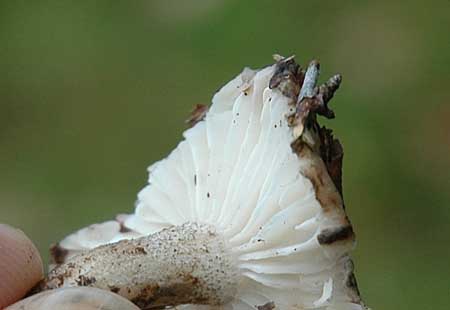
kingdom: Fungi
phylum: Basidiomycota
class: Agaricomycetes
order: Agaricales
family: Hygrophoraceae
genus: Hygrophorus
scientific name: Hygrophorus pustulatus
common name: mørkprikket sneglehat
